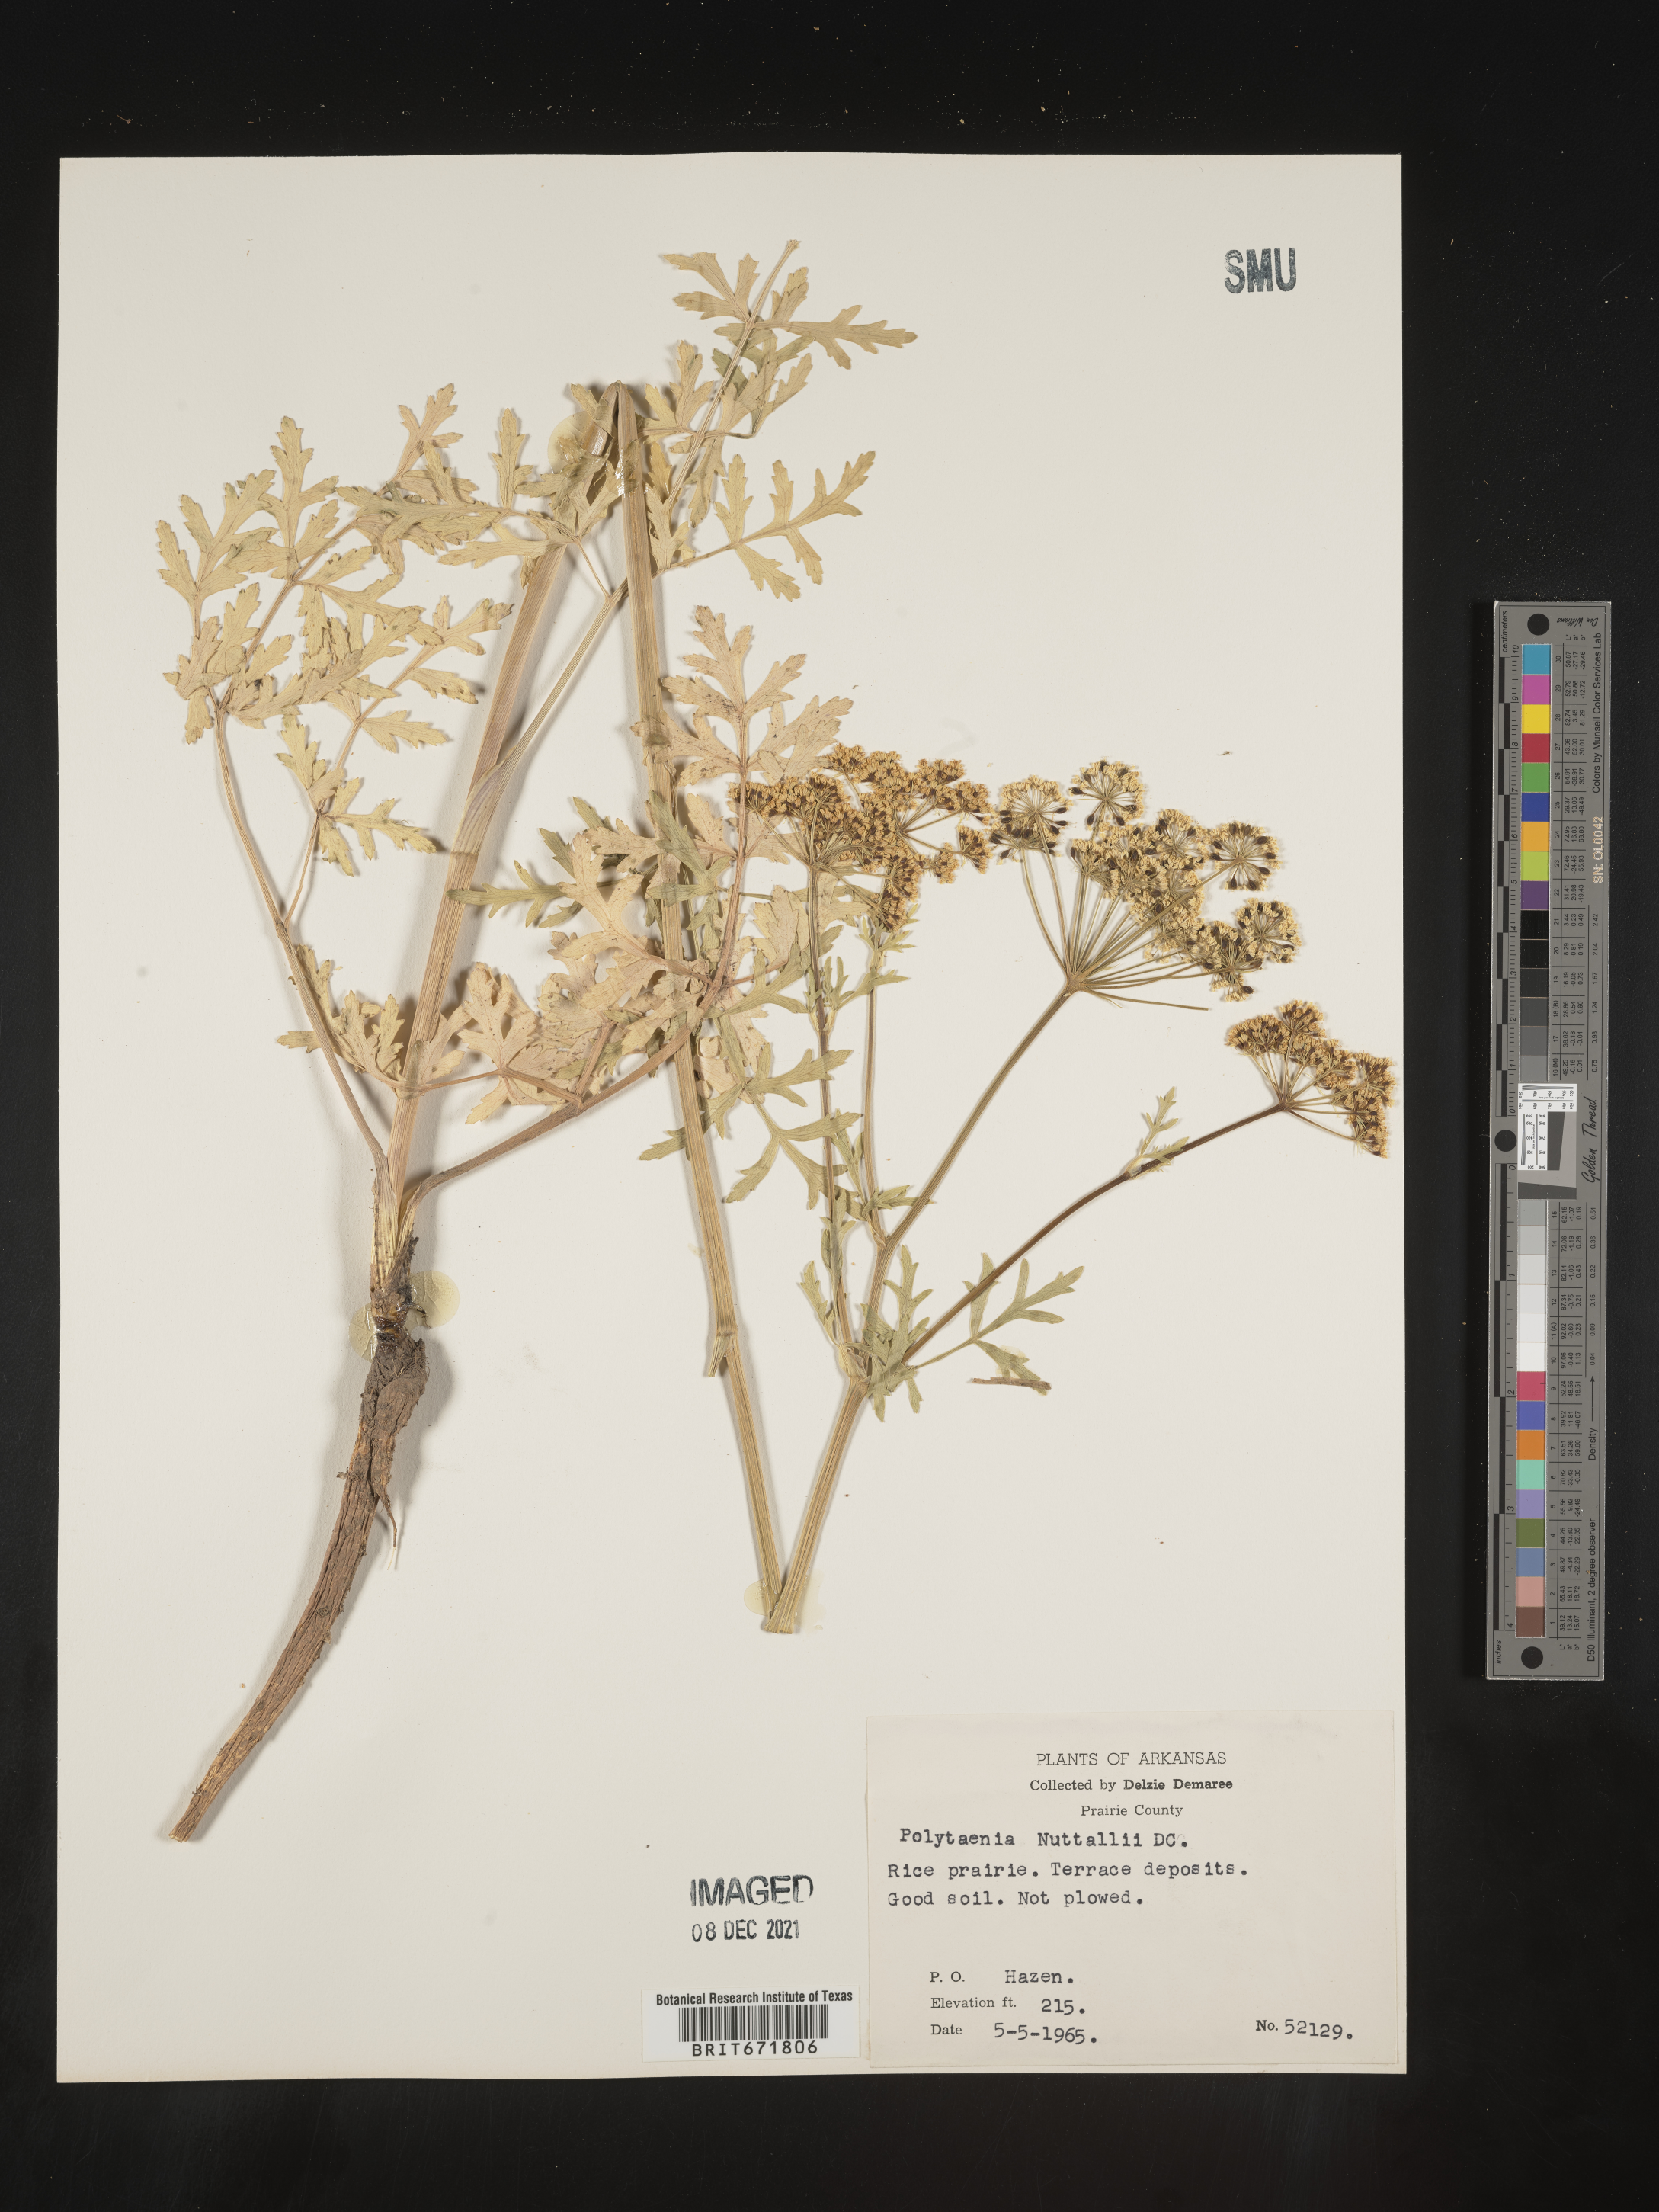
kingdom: Plantae
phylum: Tracheophyta
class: Magnoliopsida
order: Apiales
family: Apiaceae
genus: Polytaenia
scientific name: Polytaenia nuttallii
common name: Prairie-parsley
